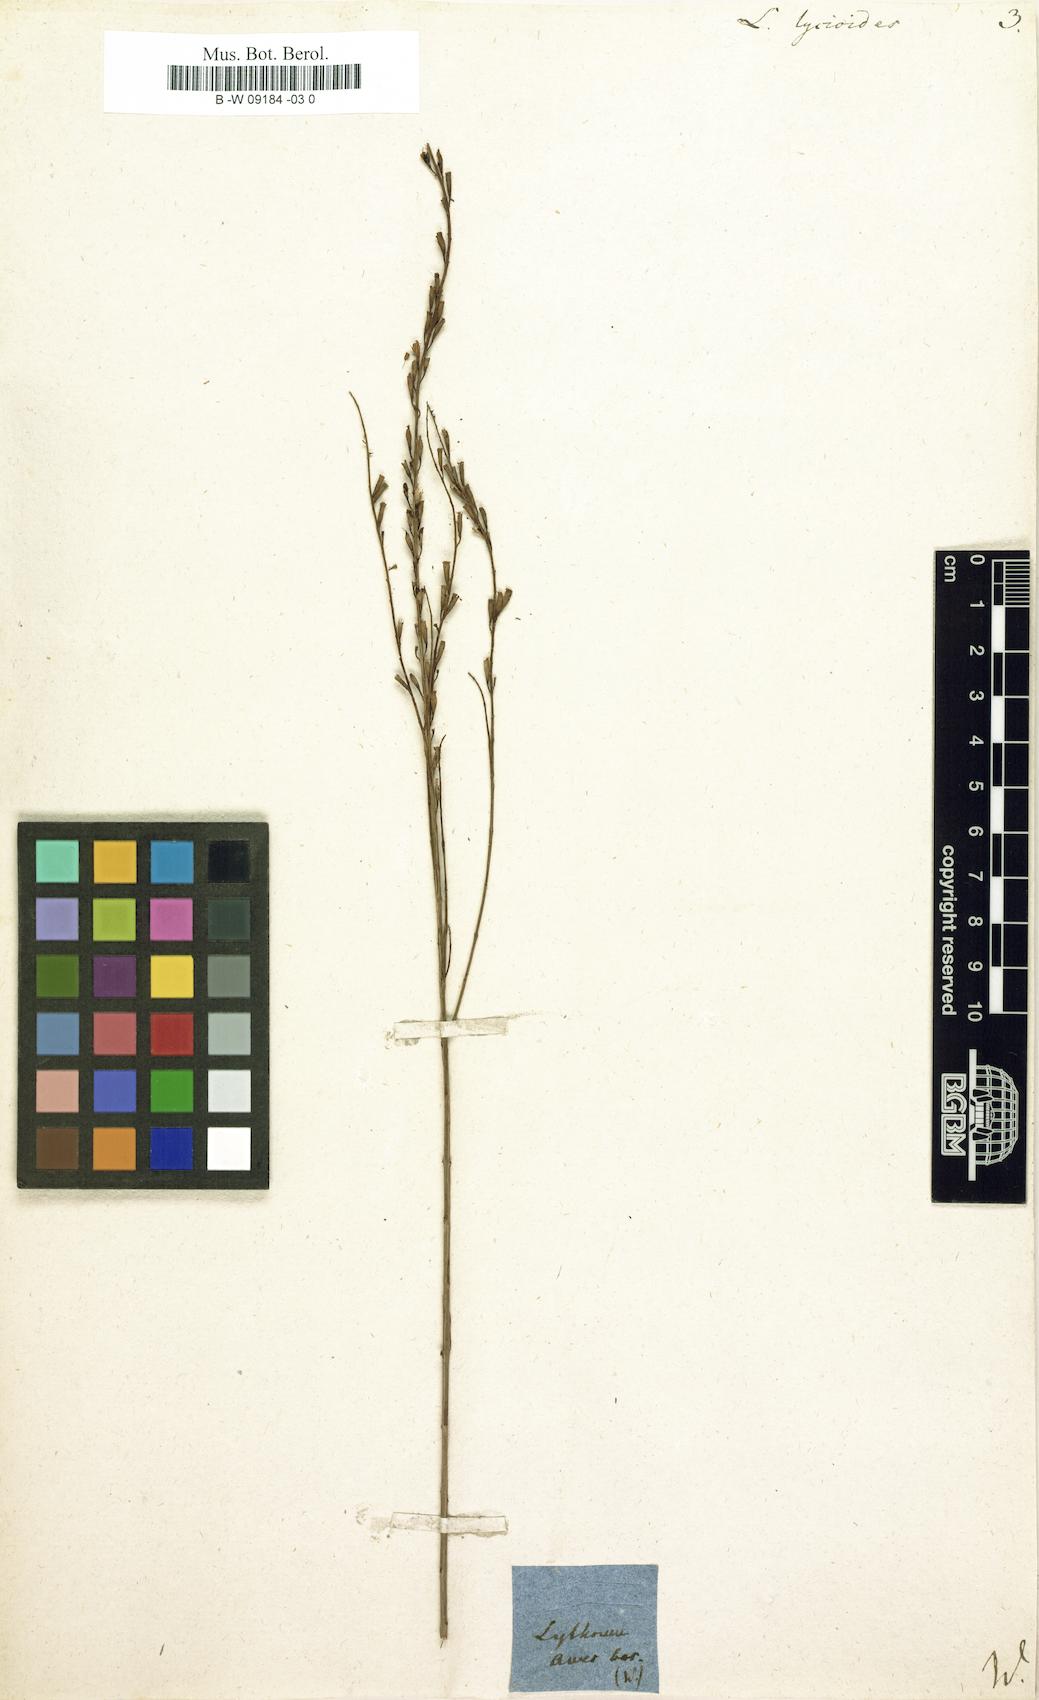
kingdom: Plantae
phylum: Tracheophyta
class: Magnoliopsida
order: Myrtales
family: Lythraceae
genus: Lythrum
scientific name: Lythrum maritimum
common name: Pukamole
